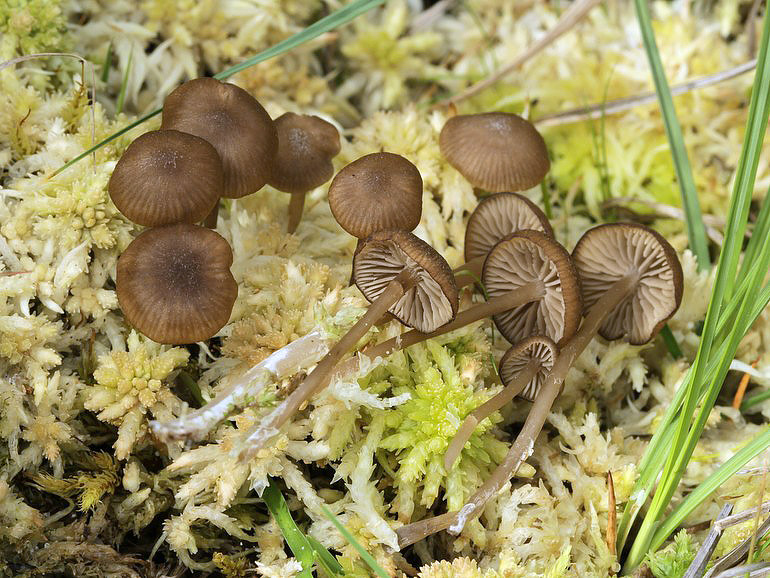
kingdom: Fungi
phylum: Basidiomycota
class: Agaricomycetes
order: Agaricales
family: Lyophyllaceae
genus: Sphagnurus
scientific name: Sphagnurus paluster
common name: tørvemos-gråblad
